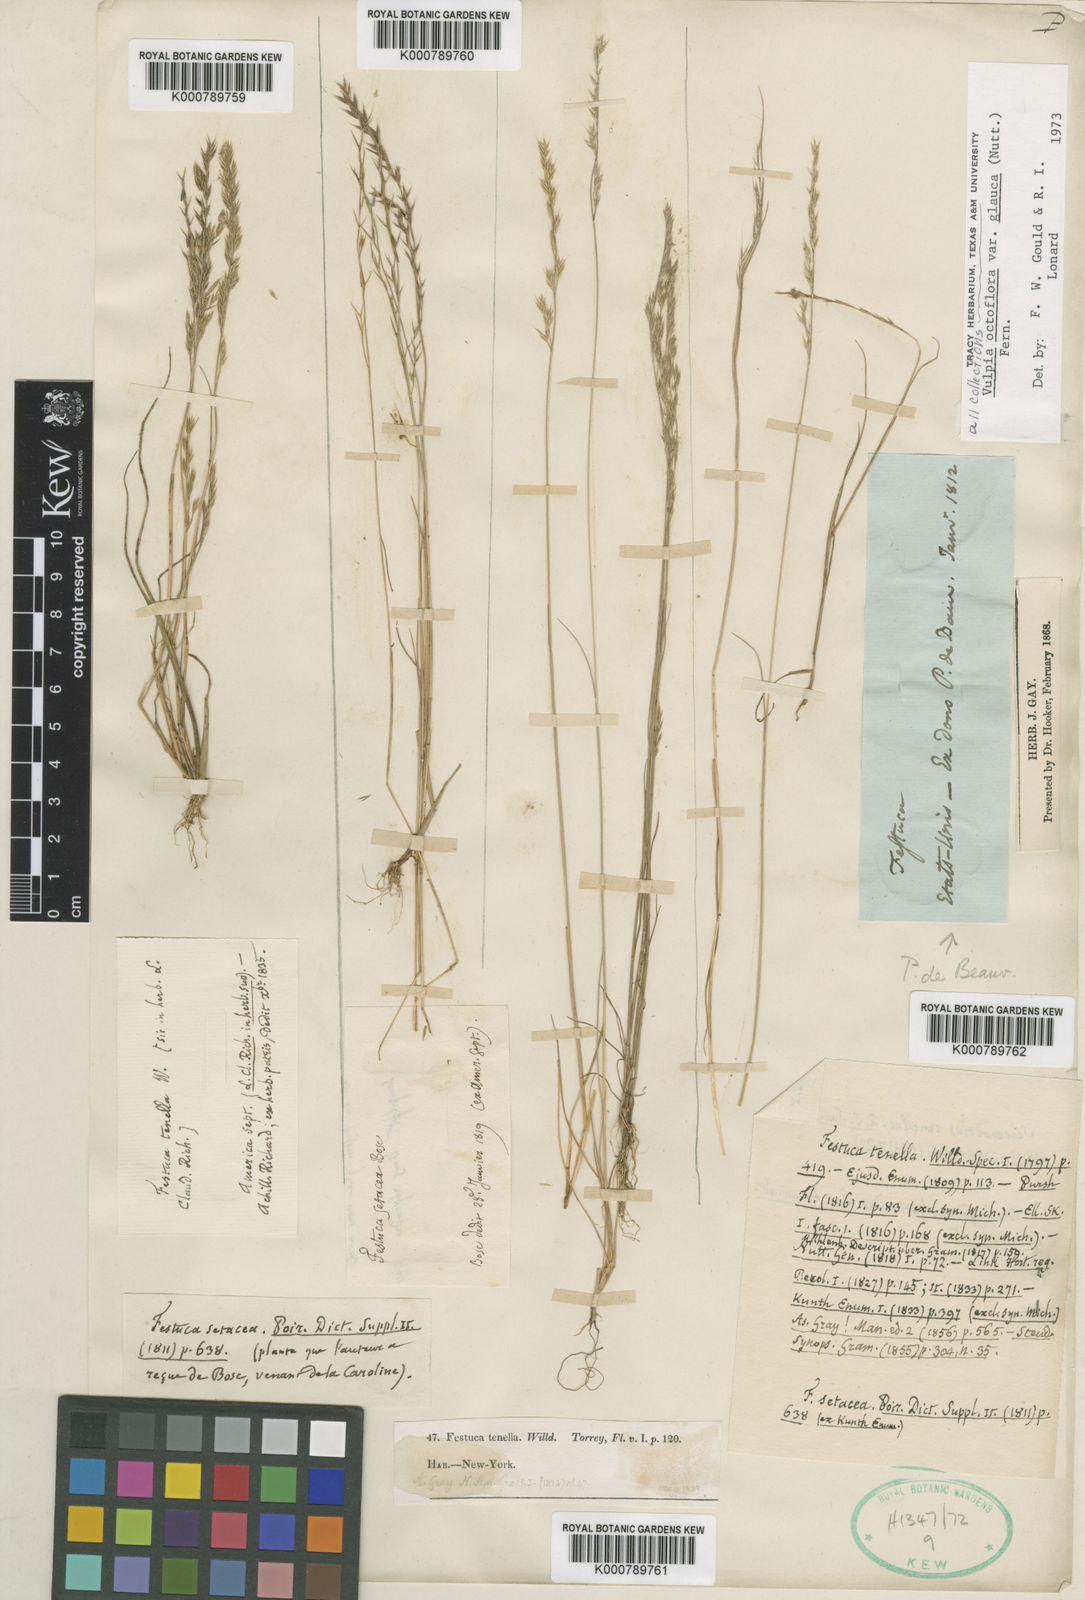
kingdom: Plantae
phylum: Tracheophyta
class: Liliopsida
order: Poales
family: Poaceae
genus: Festuca
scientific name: Festuca octoflora
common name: Sixweeks grass
